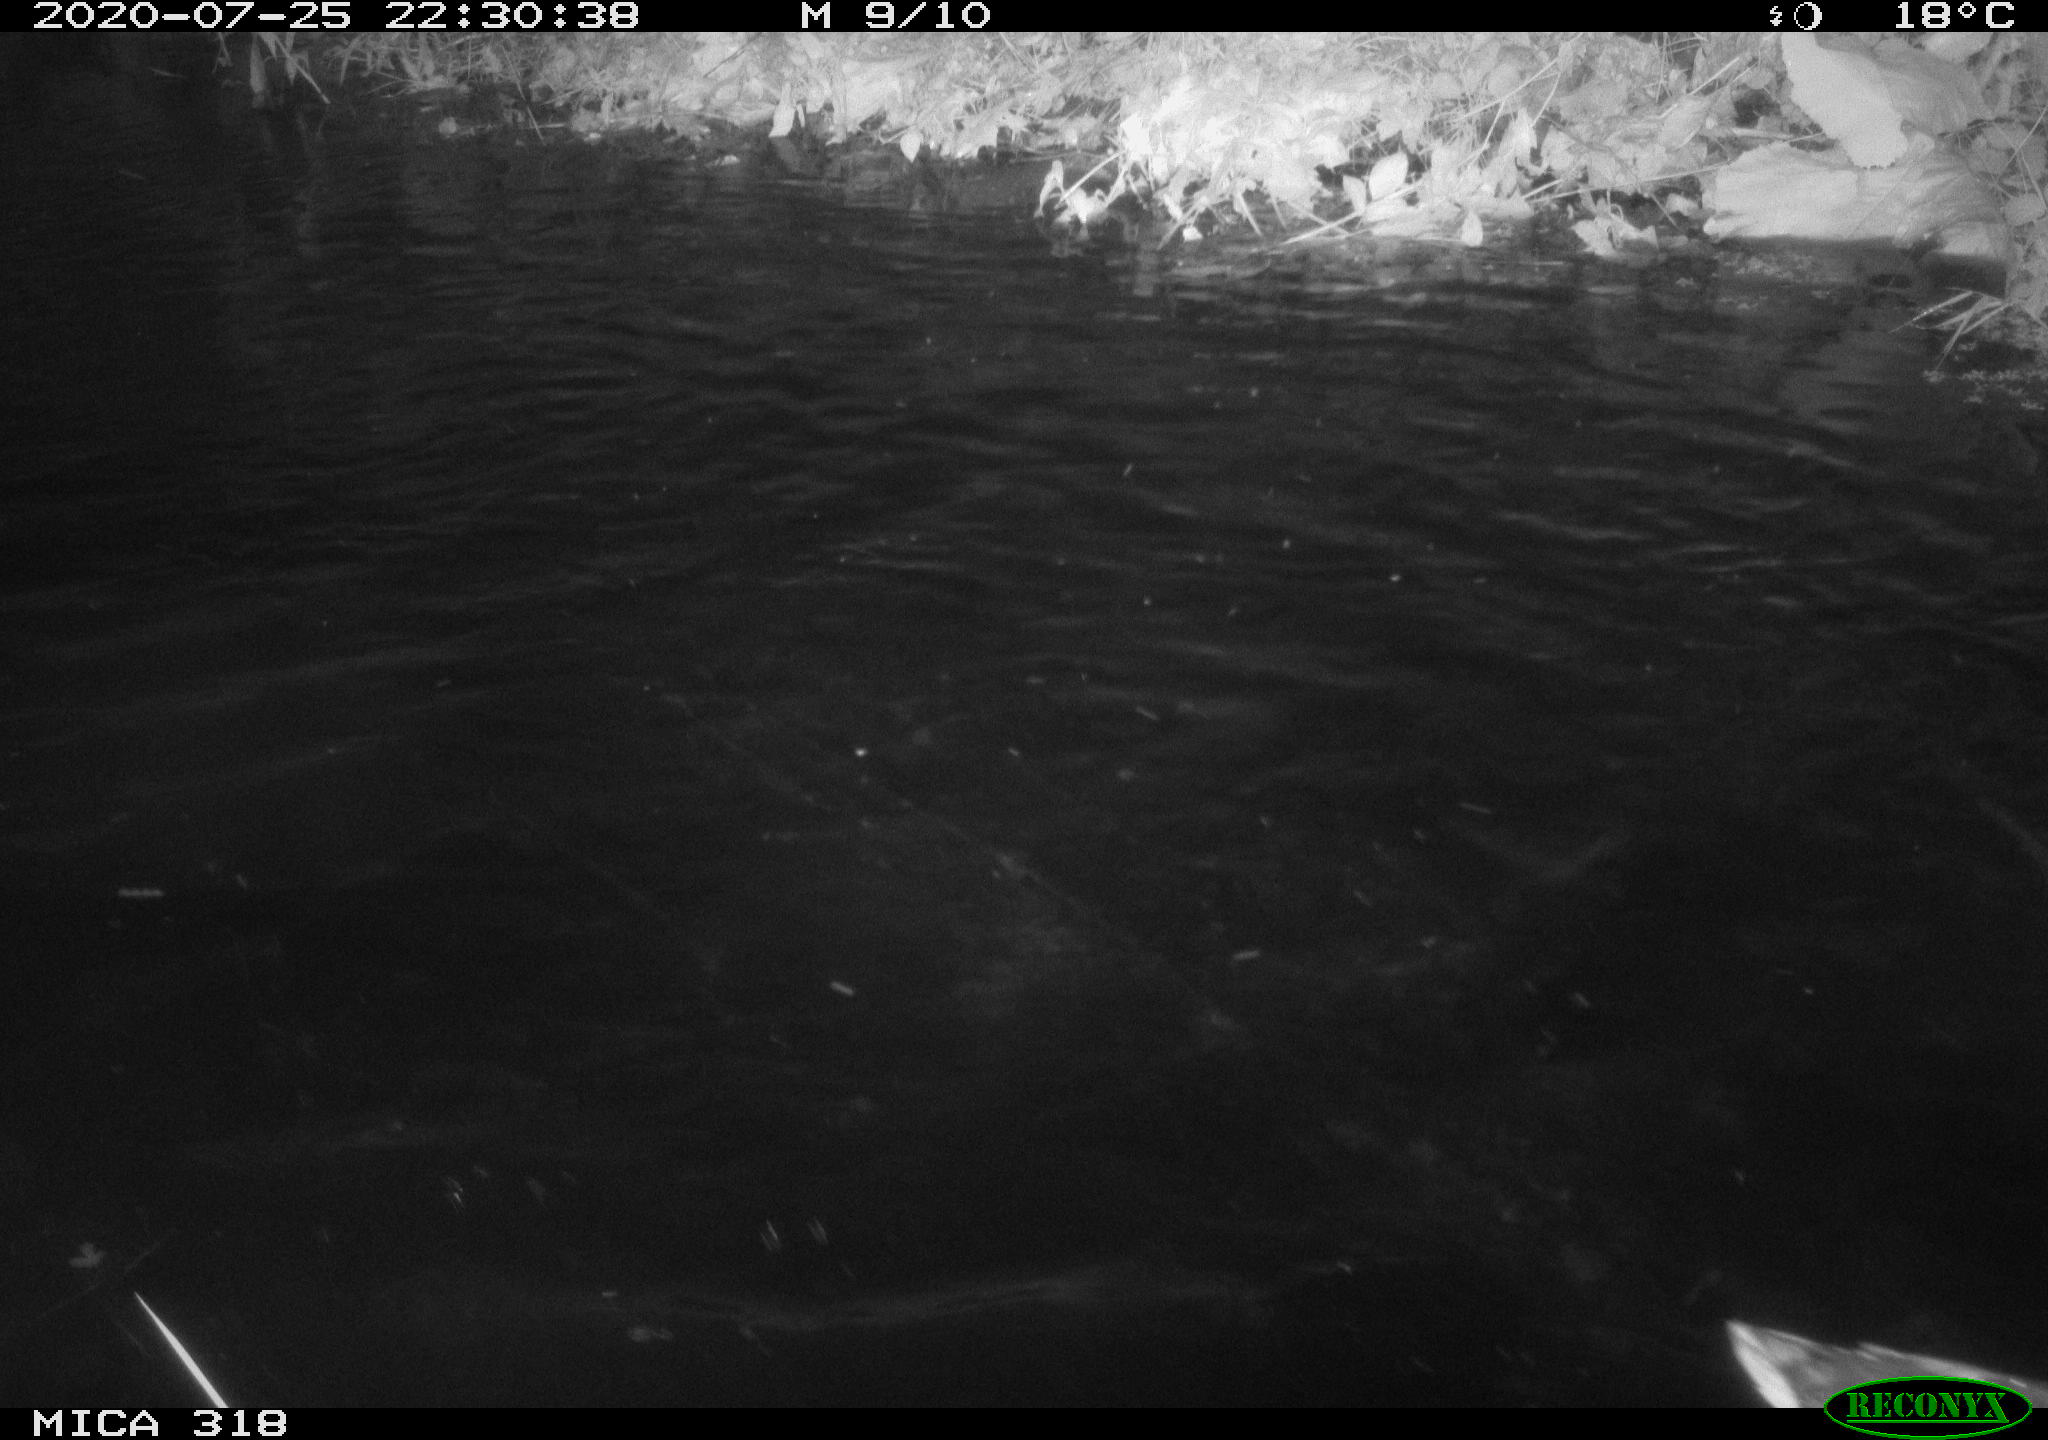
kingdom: Animalia
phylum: Chordata
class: Aves
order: Anseriformes
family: Anatidae
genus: Anas
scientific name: Anas platyrhynchos
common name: Mallard
